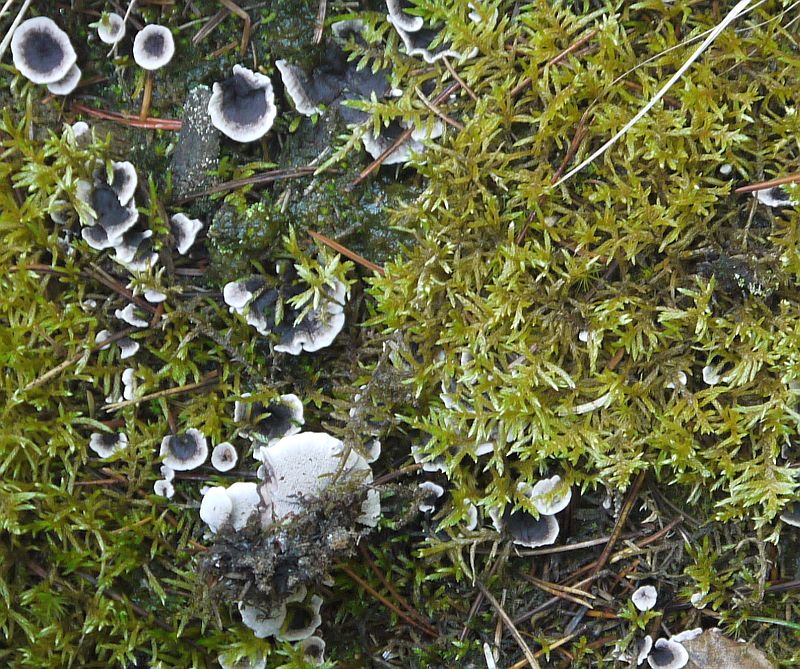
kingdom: Fungi
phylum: Basidiomycota
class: Agaricomycetes
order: Thelephorales
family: Thelephoraceae
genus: Phellodon
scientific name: Phellodon tomentosus
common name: vellugtende duftpigsvamp
